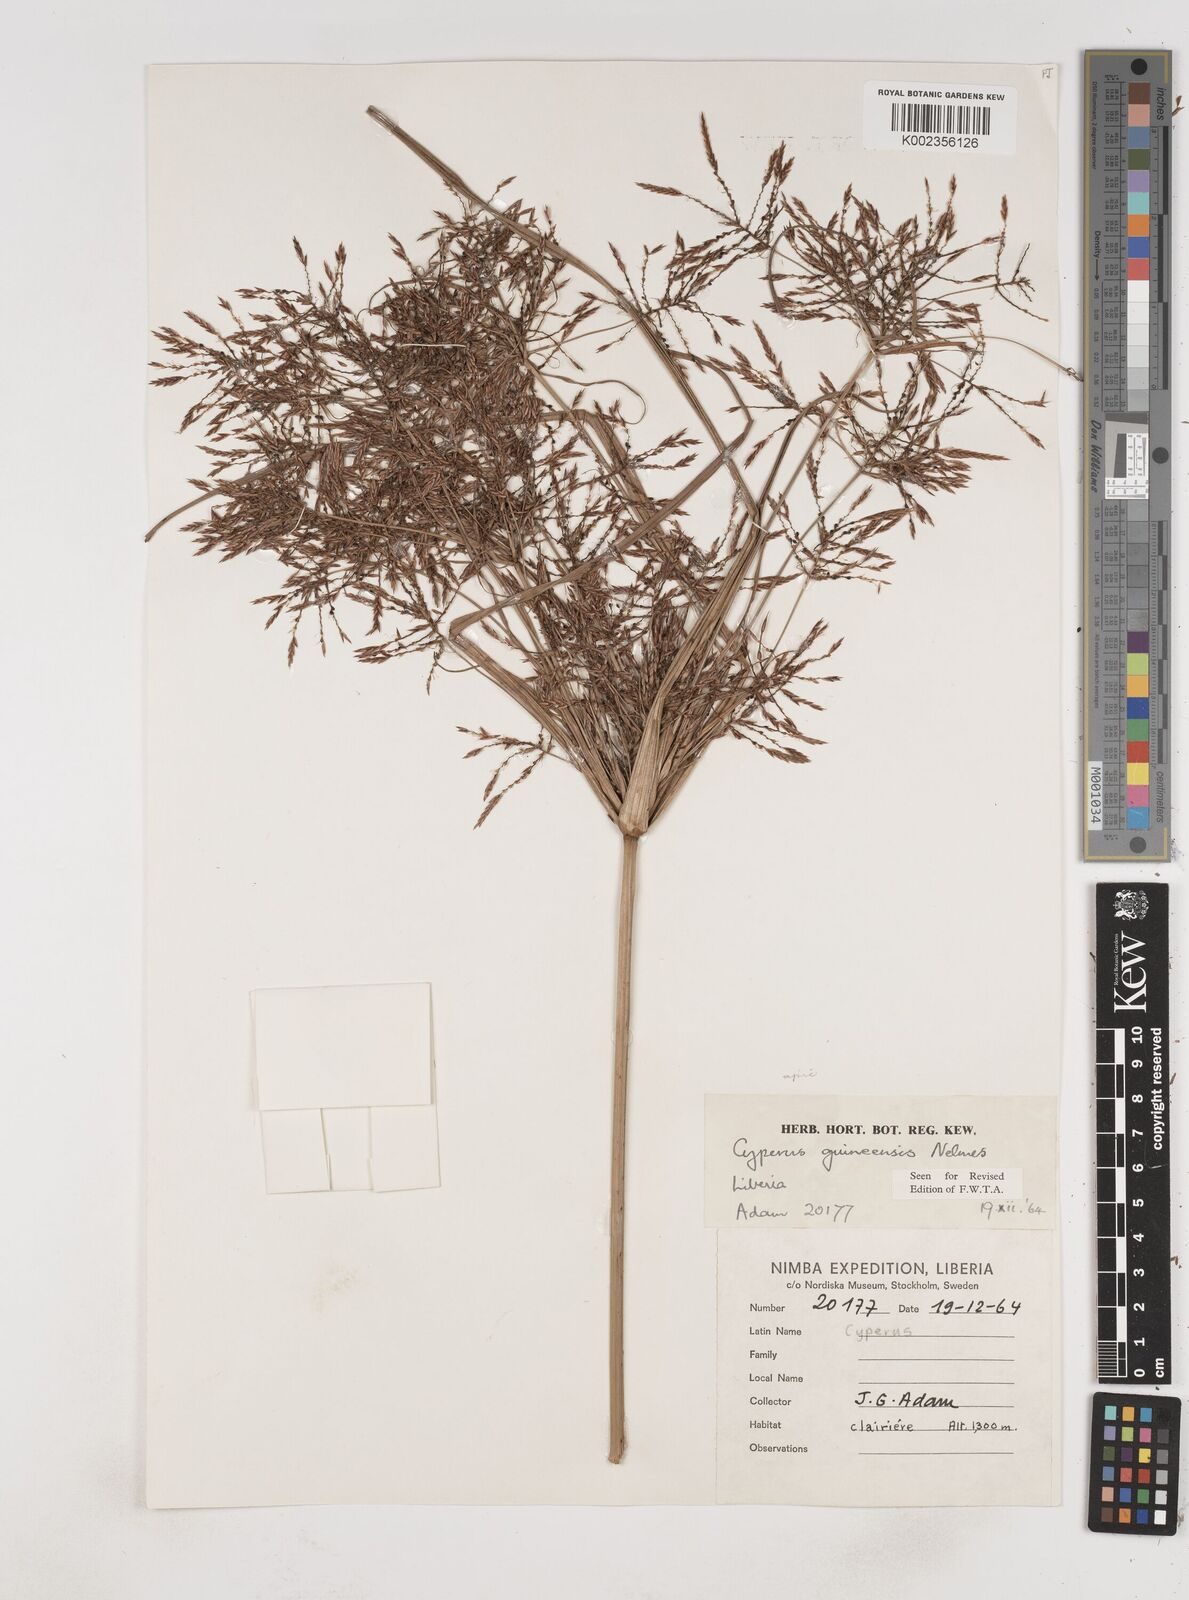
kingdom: Plantae
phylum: Tracheophyta
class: Liliopsida
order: Poales
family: Cyperaceae
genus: Cyperus
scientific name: Cyperus tenuiculmis
